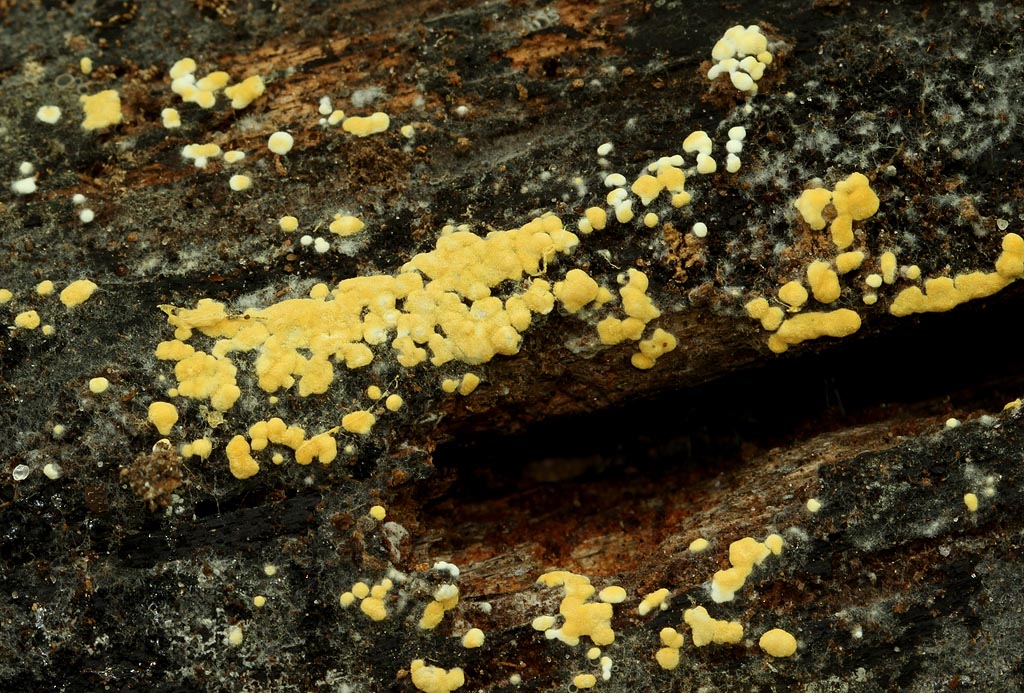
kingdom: Fungi
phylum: Basidiomycota
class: Agaricomycetes
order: Cantharellales
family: Botryobasidiaceae
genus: Botryobasidium
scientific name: Botryobasidium aureum
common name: gylden spindhinde
